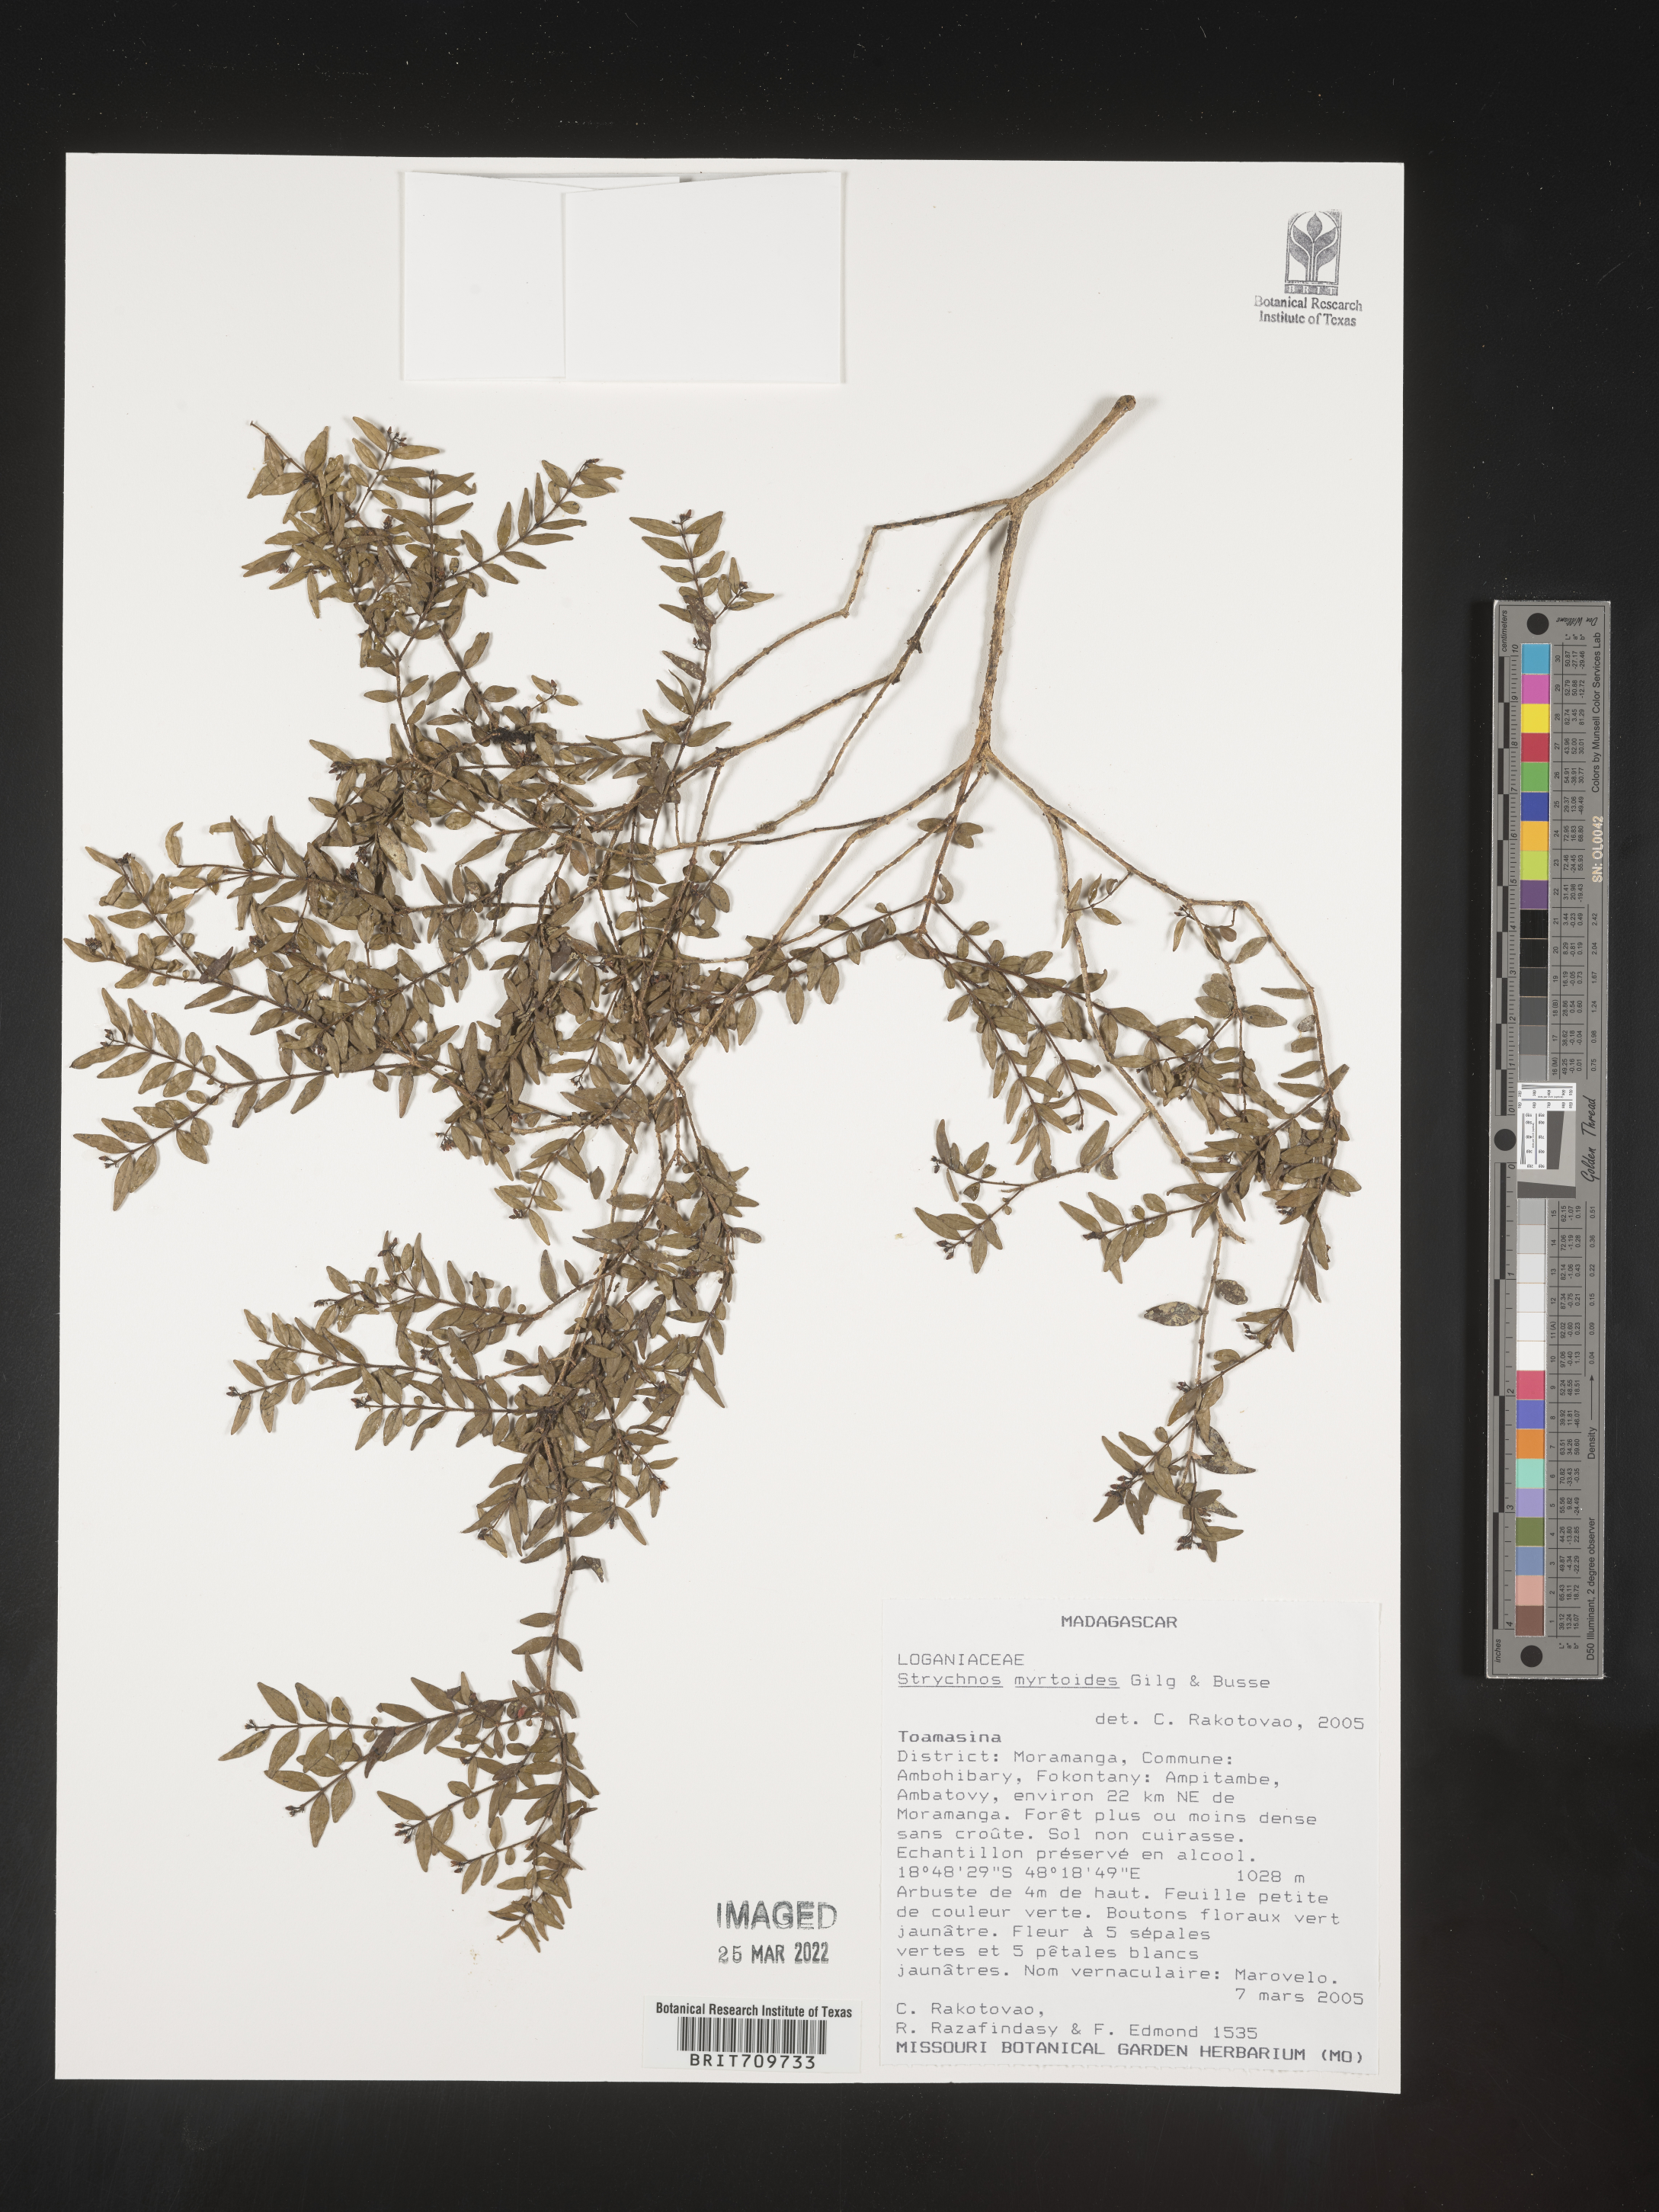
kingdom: Plantae
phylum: Tracheophyta
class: Magnoliopsida
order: Gentianales
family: Loganiaceae
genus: Strychnos
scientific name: Strychnos
